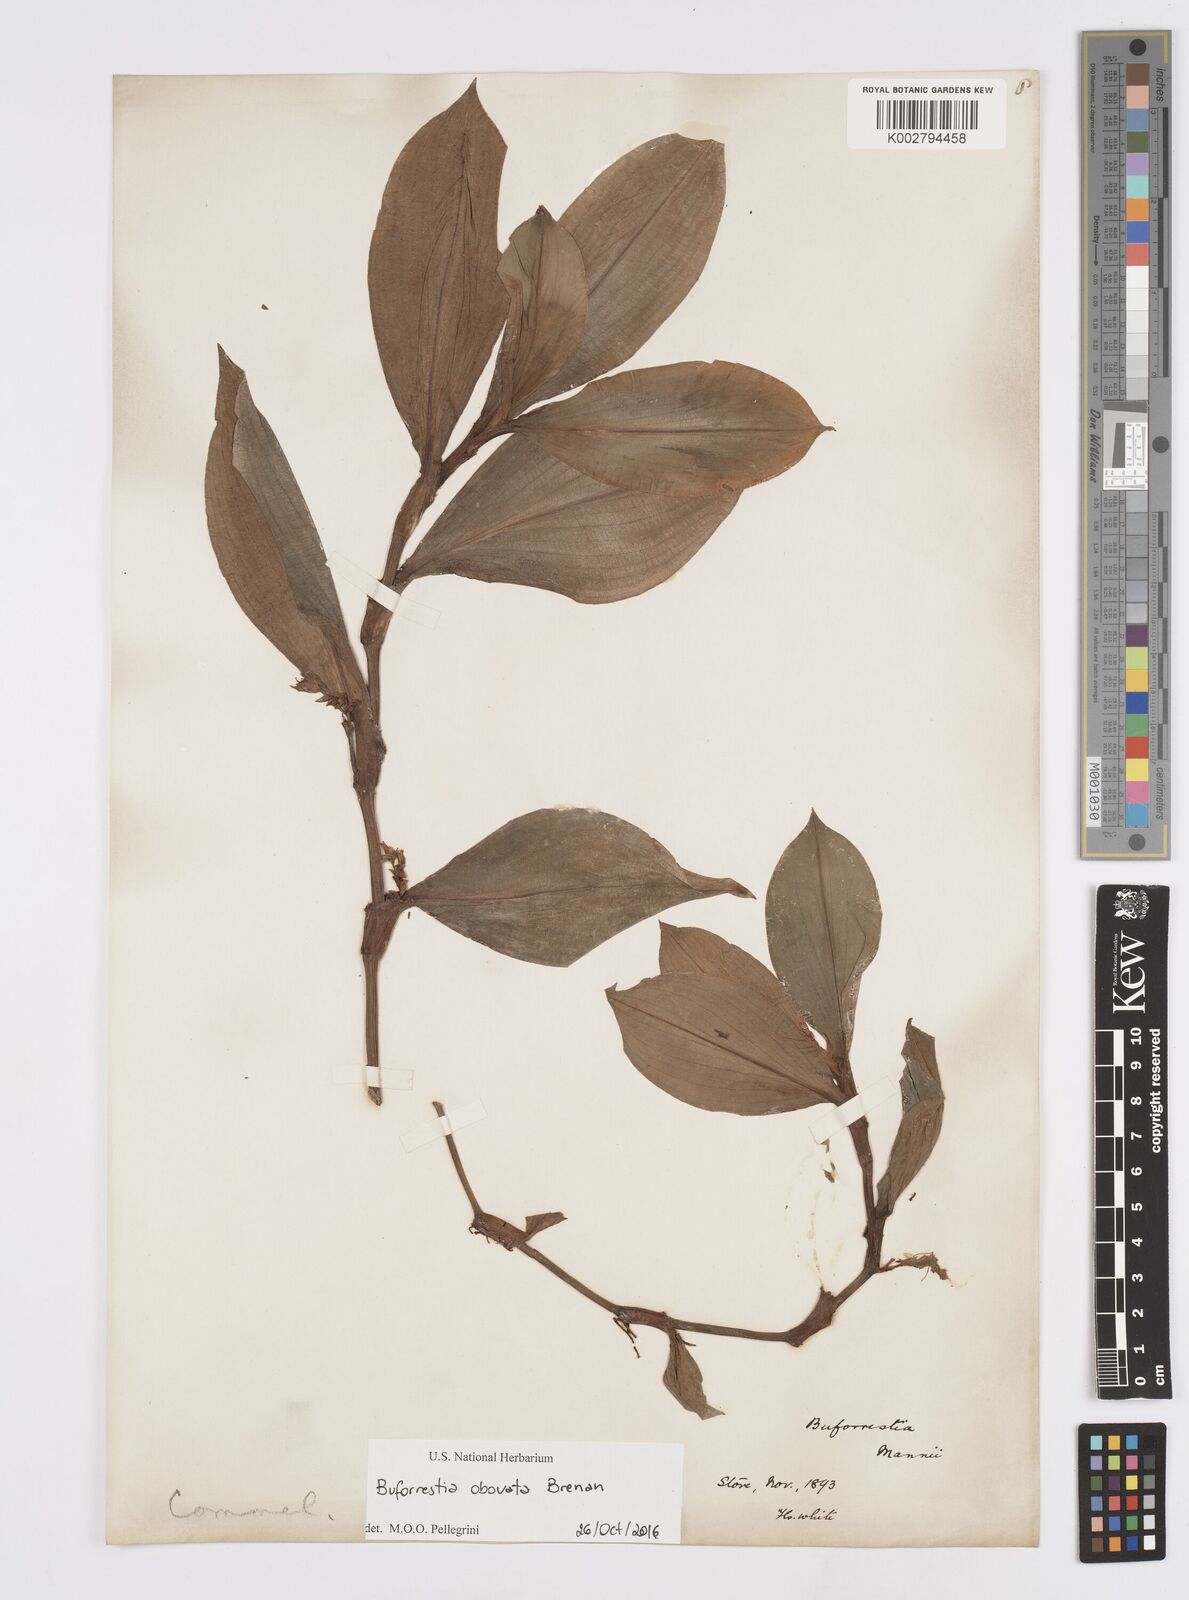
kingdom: Plantae
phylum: Tracheophyta
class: Liliopsida
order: Commelinales
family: Commelinaceae
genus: Buforrestia
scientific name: Buforrestia mannii
